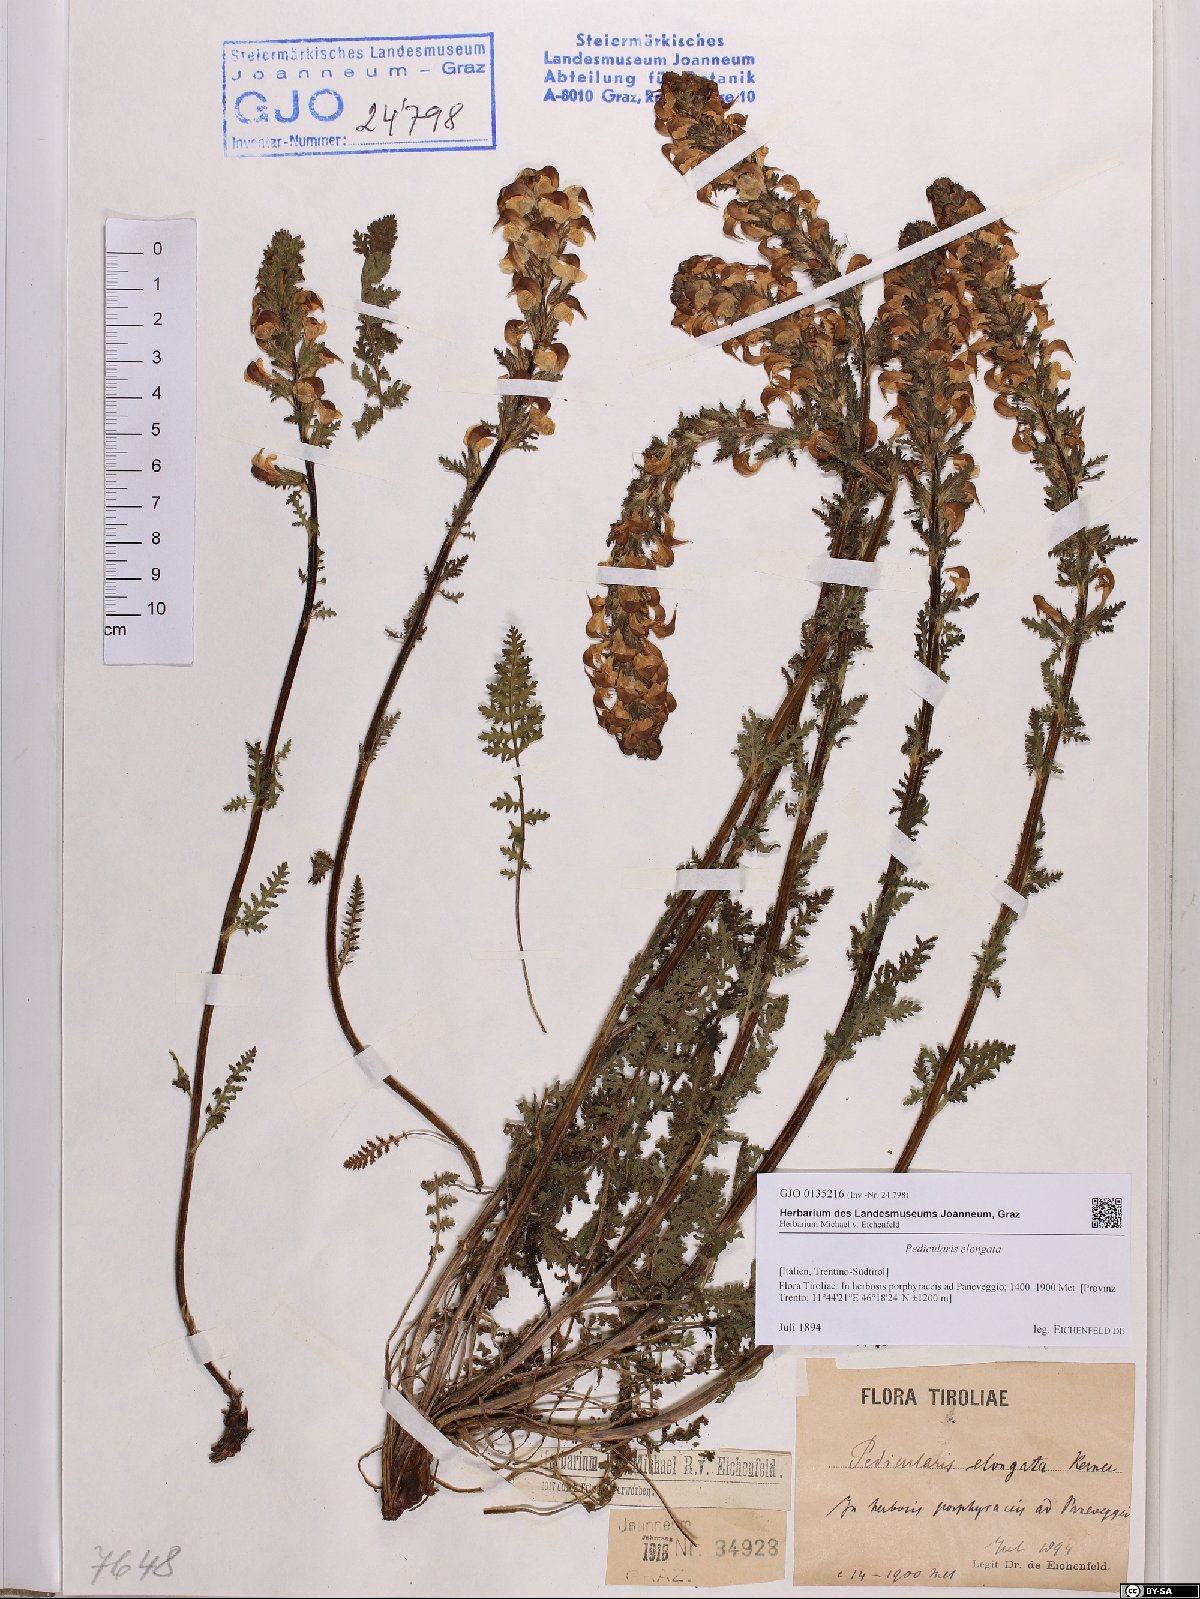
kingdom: Plantae
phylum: Tracheophyta
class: Magnoliopsida
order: Lamiales
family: Orobanchaceae
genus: Pedicularis
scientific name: Pedicularis elongata
